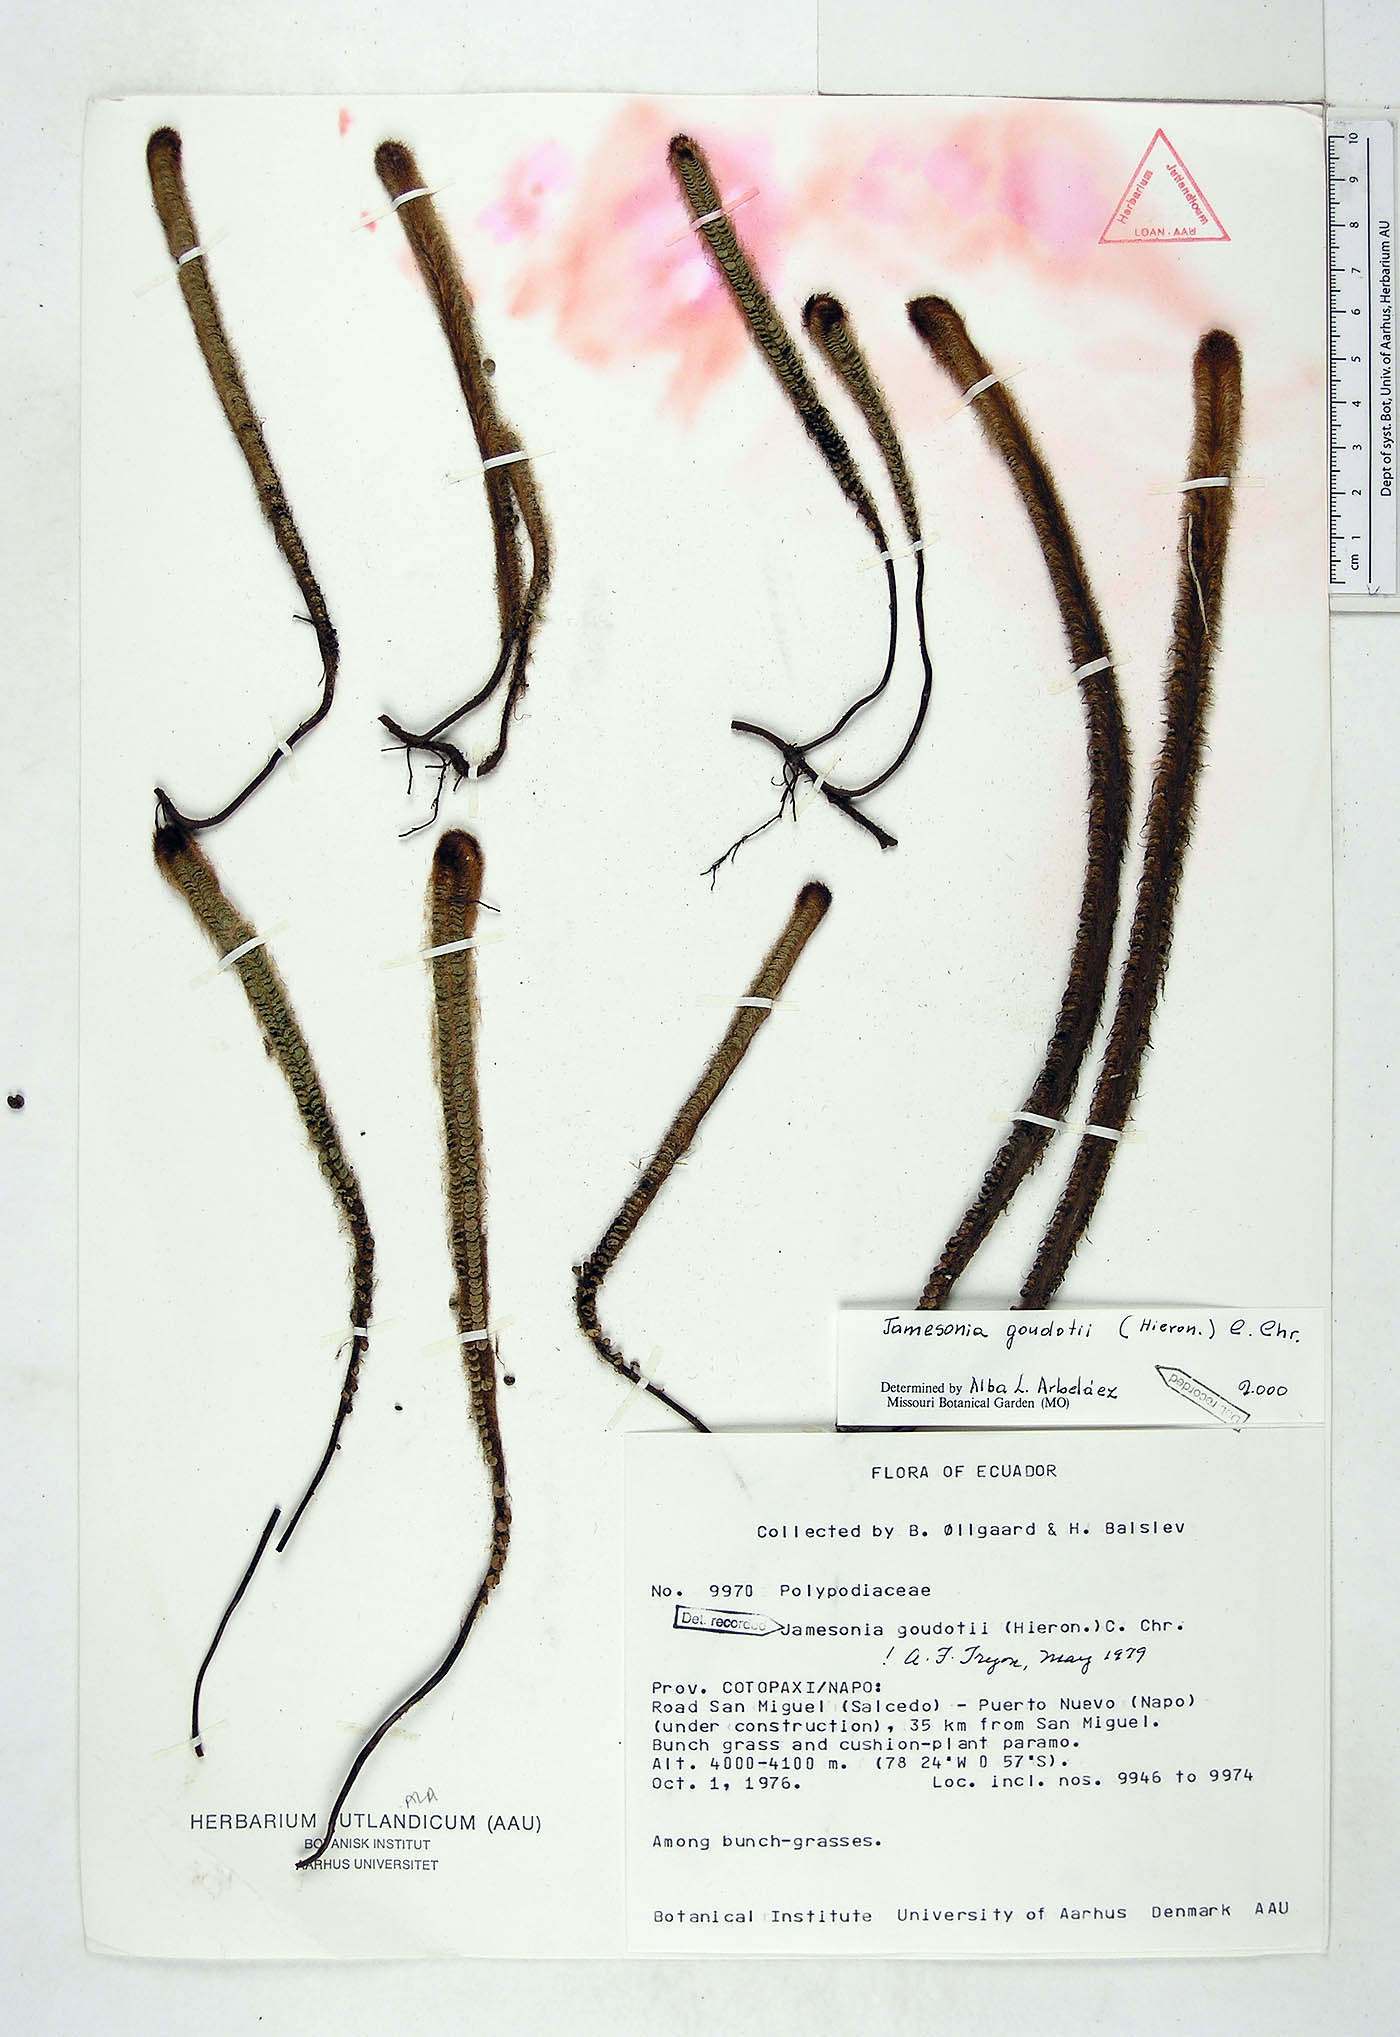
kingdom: Plantae
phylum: Tracheophyta
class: Polypodiopsida
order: Polypodiales
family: Pteridaceae
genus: Jamesonia
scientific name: Jamesonia goudotii
